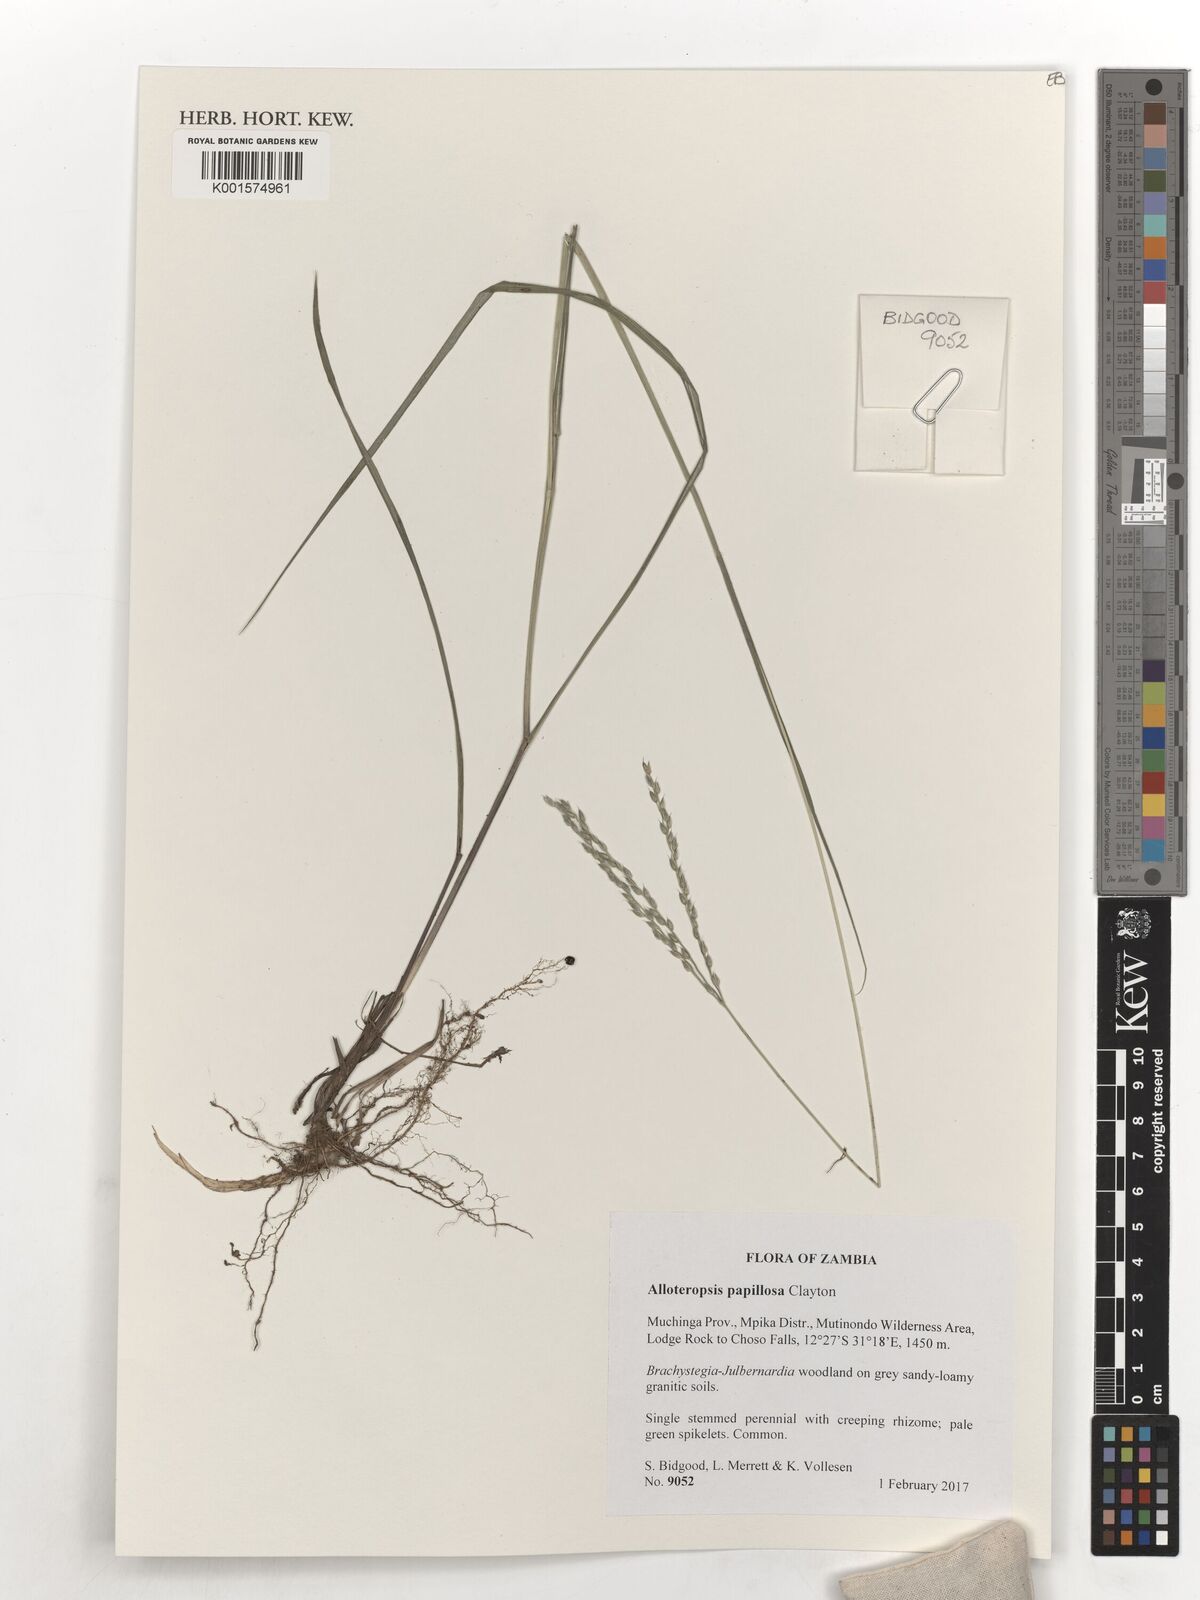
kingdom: Plantae
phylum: Tracheophyta
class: Liliopsida
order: Poales
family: Poaceae
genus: Alloteropsis
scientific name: Alloteropsis papillosa
